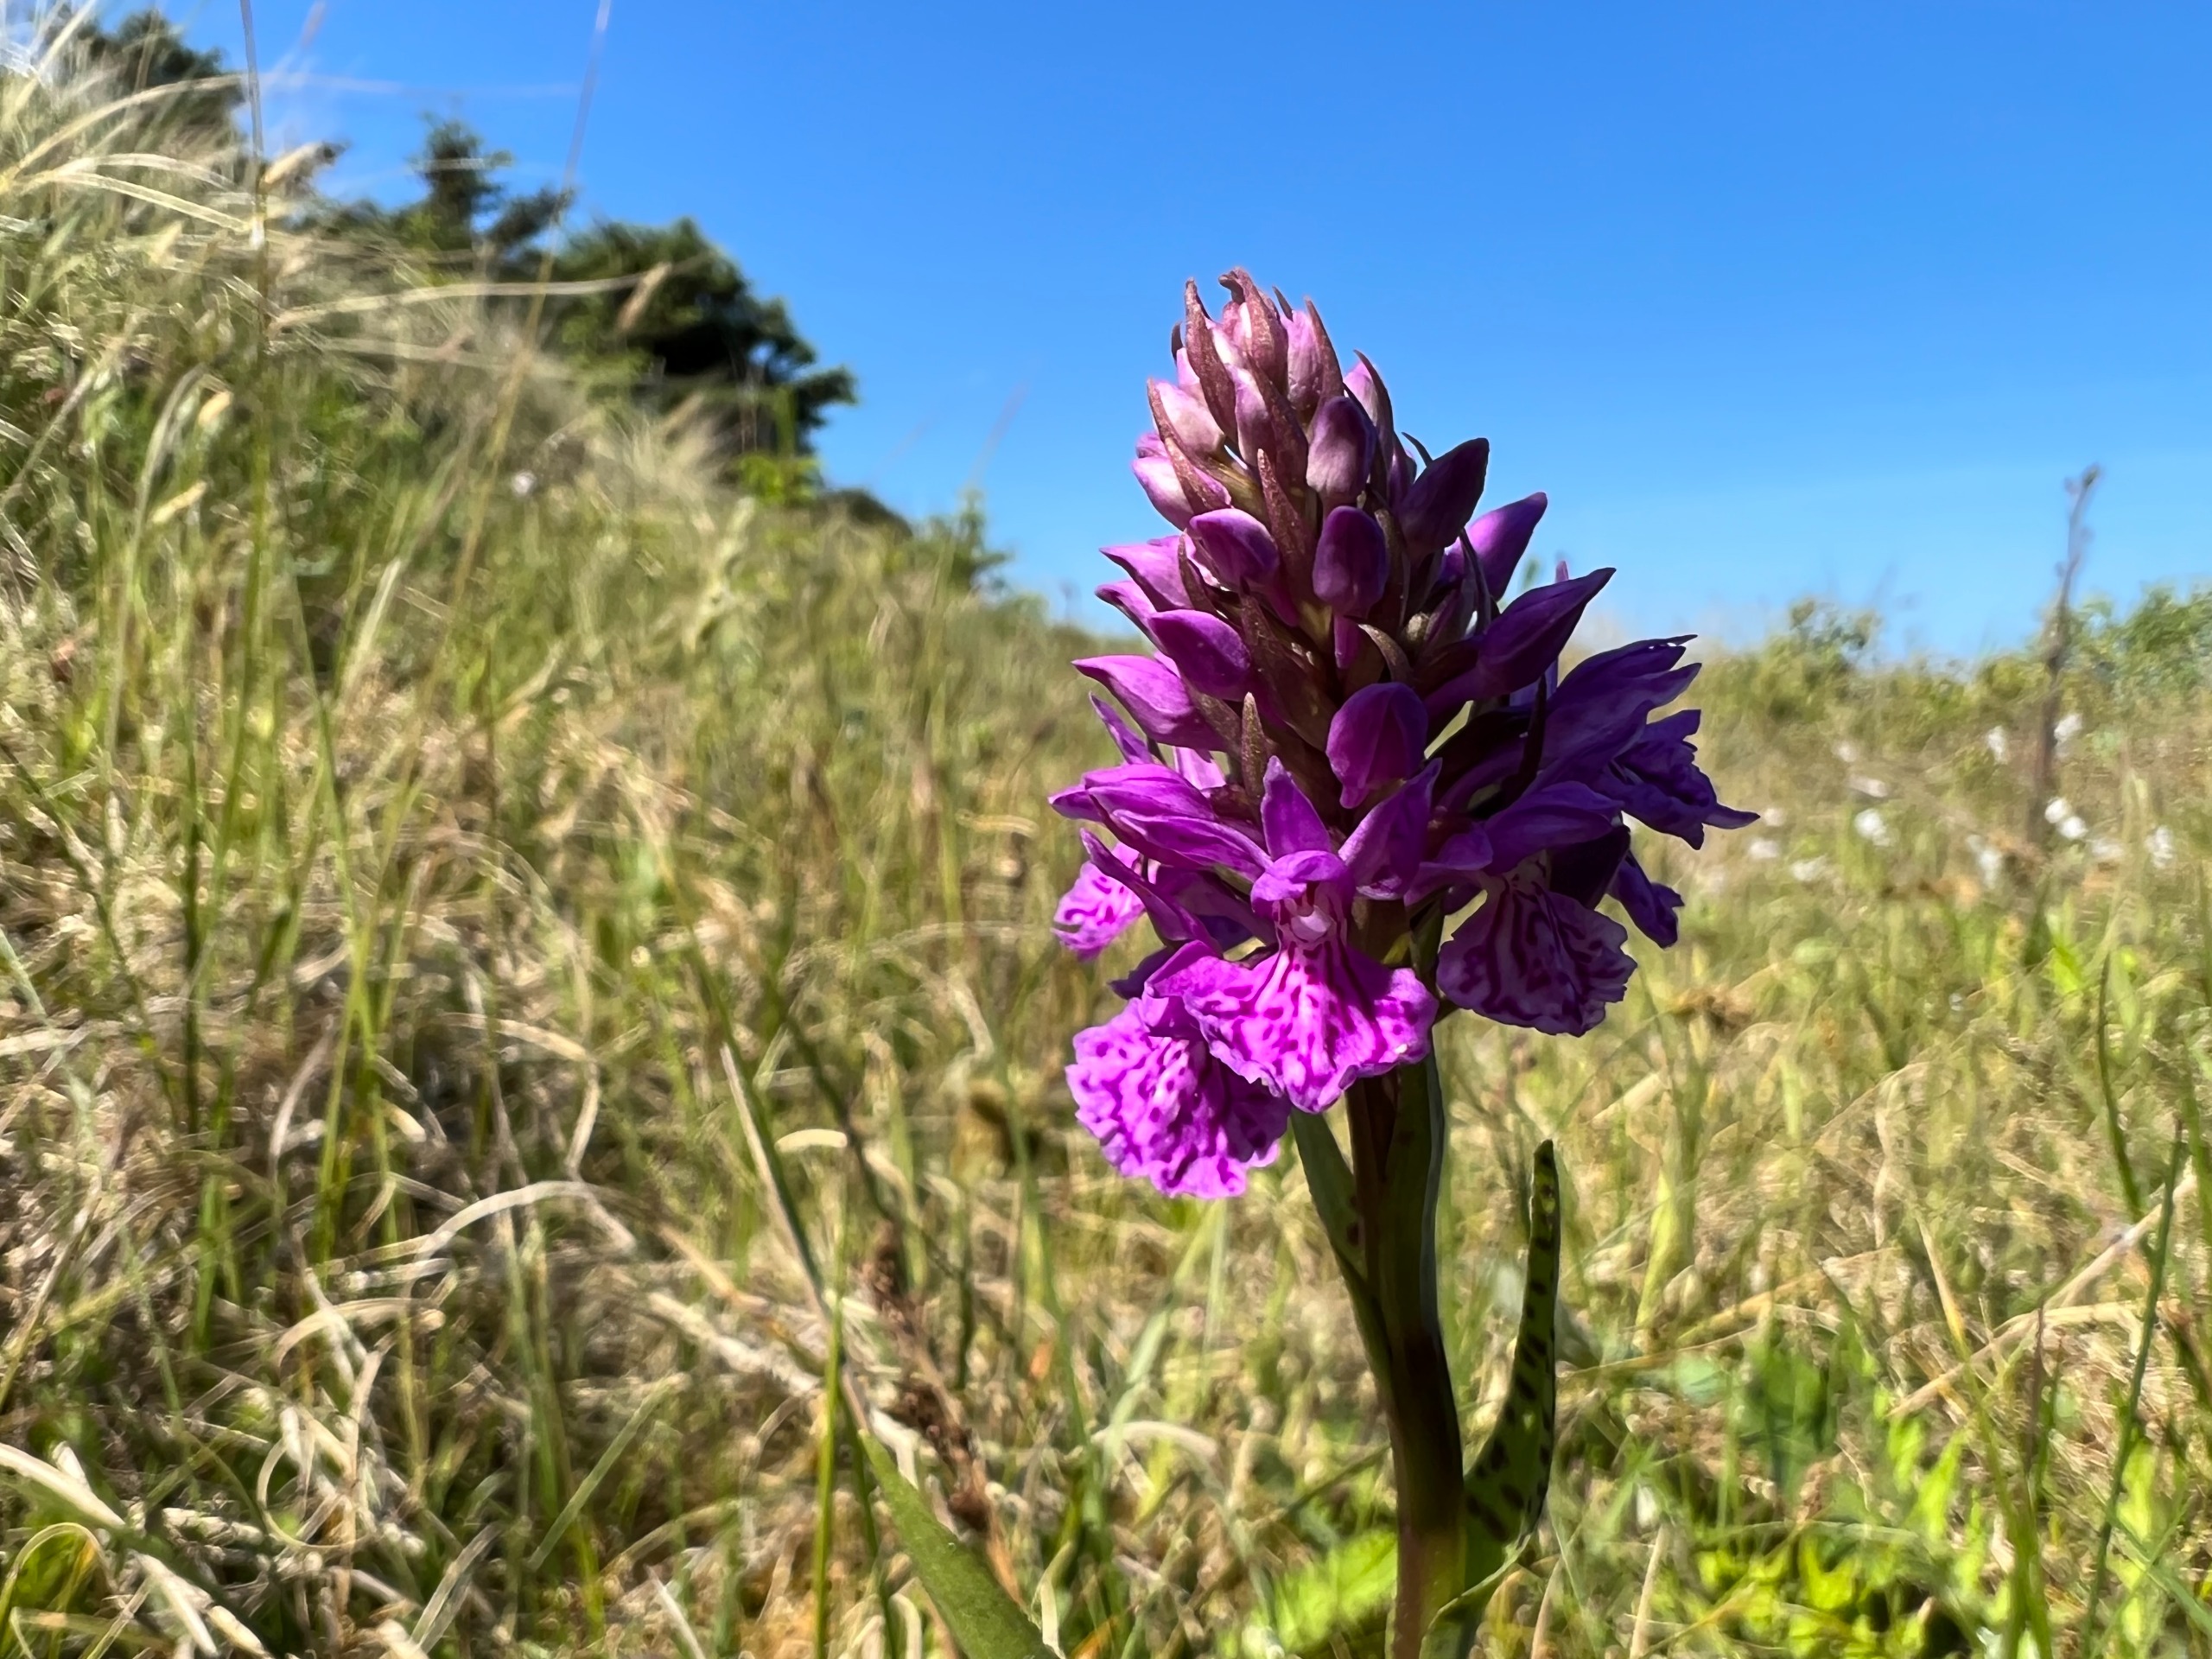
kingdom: Plantae
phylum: Tracheophyta
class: Liliopsida
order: Asparagales
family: Orchidaceae
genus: Dactylorhiza
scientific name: Dactylorhiza maculata
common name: Plettet gøgeurt
